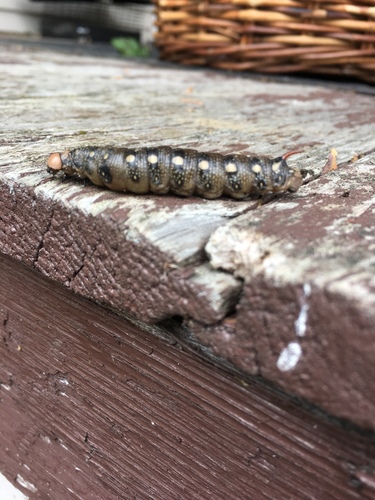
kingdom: Animalia
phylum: Arthropoda
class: Insecta
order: Lepidoptera
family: Sphingidae
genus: Hyles
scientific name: Hyles gallii
